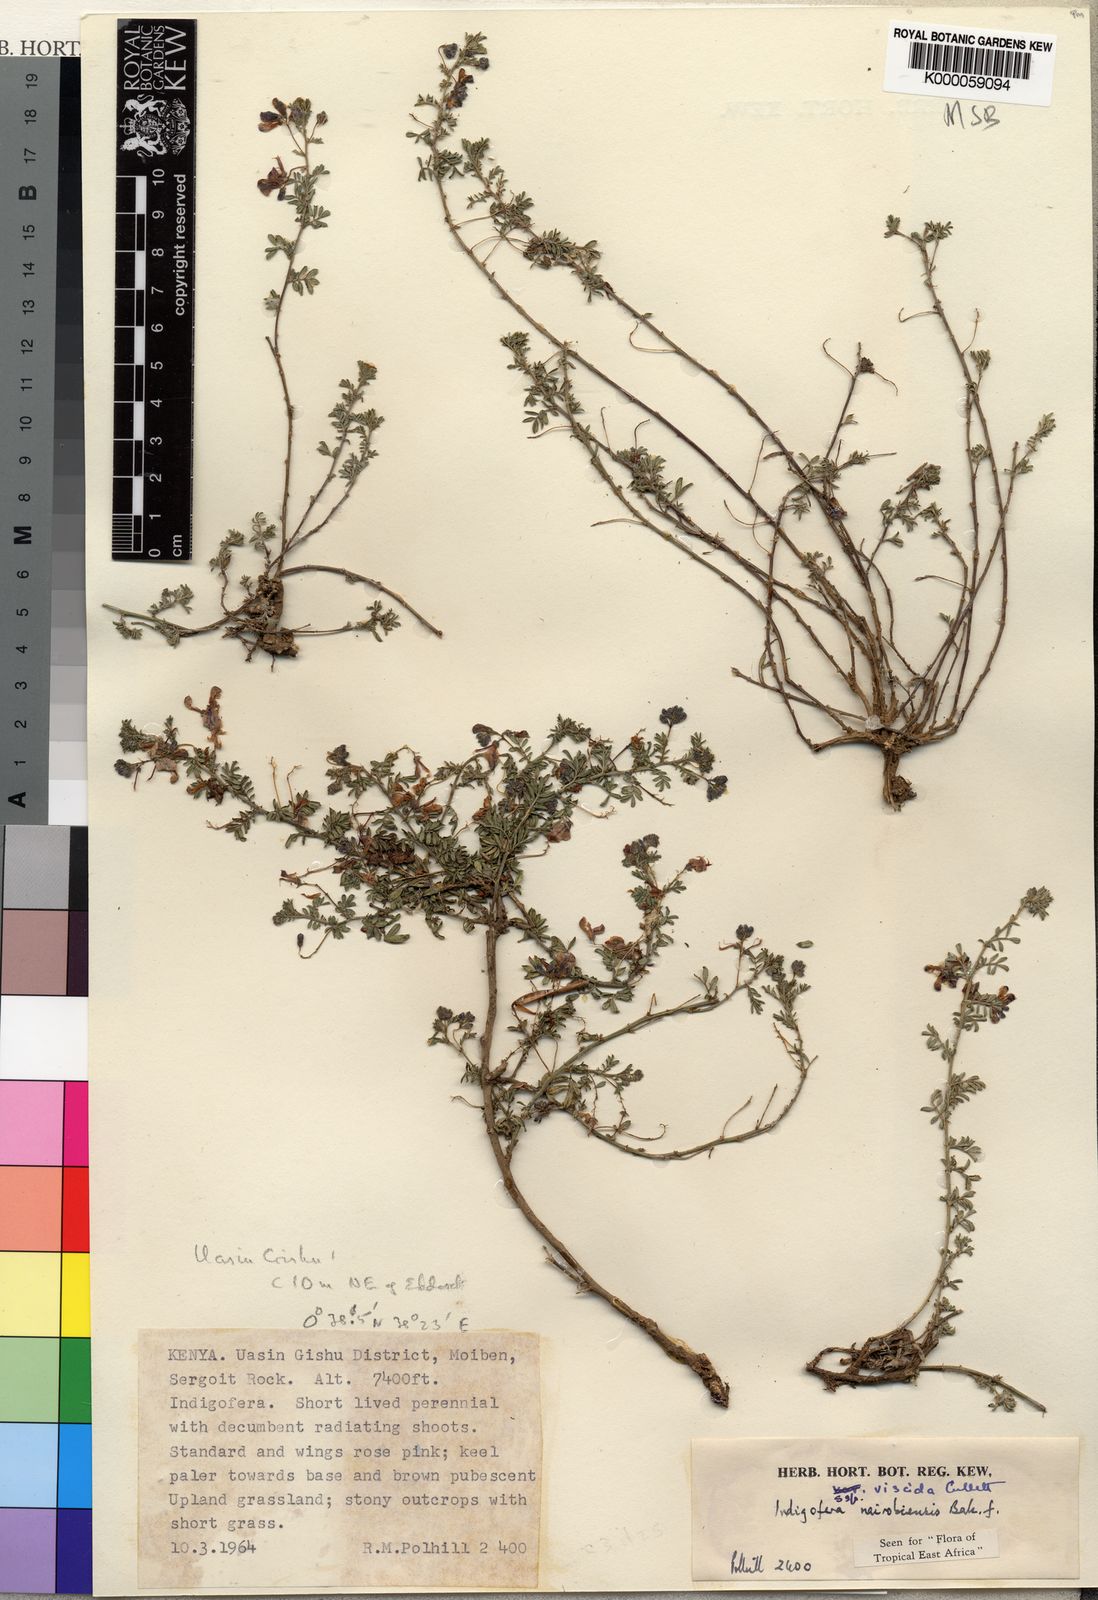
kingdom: Plantae
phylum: Tracheophyta
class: Magnoliopsida
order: Fabales
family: Fabaceae
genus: Indigofera
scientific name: Indigofera nairobiensis
